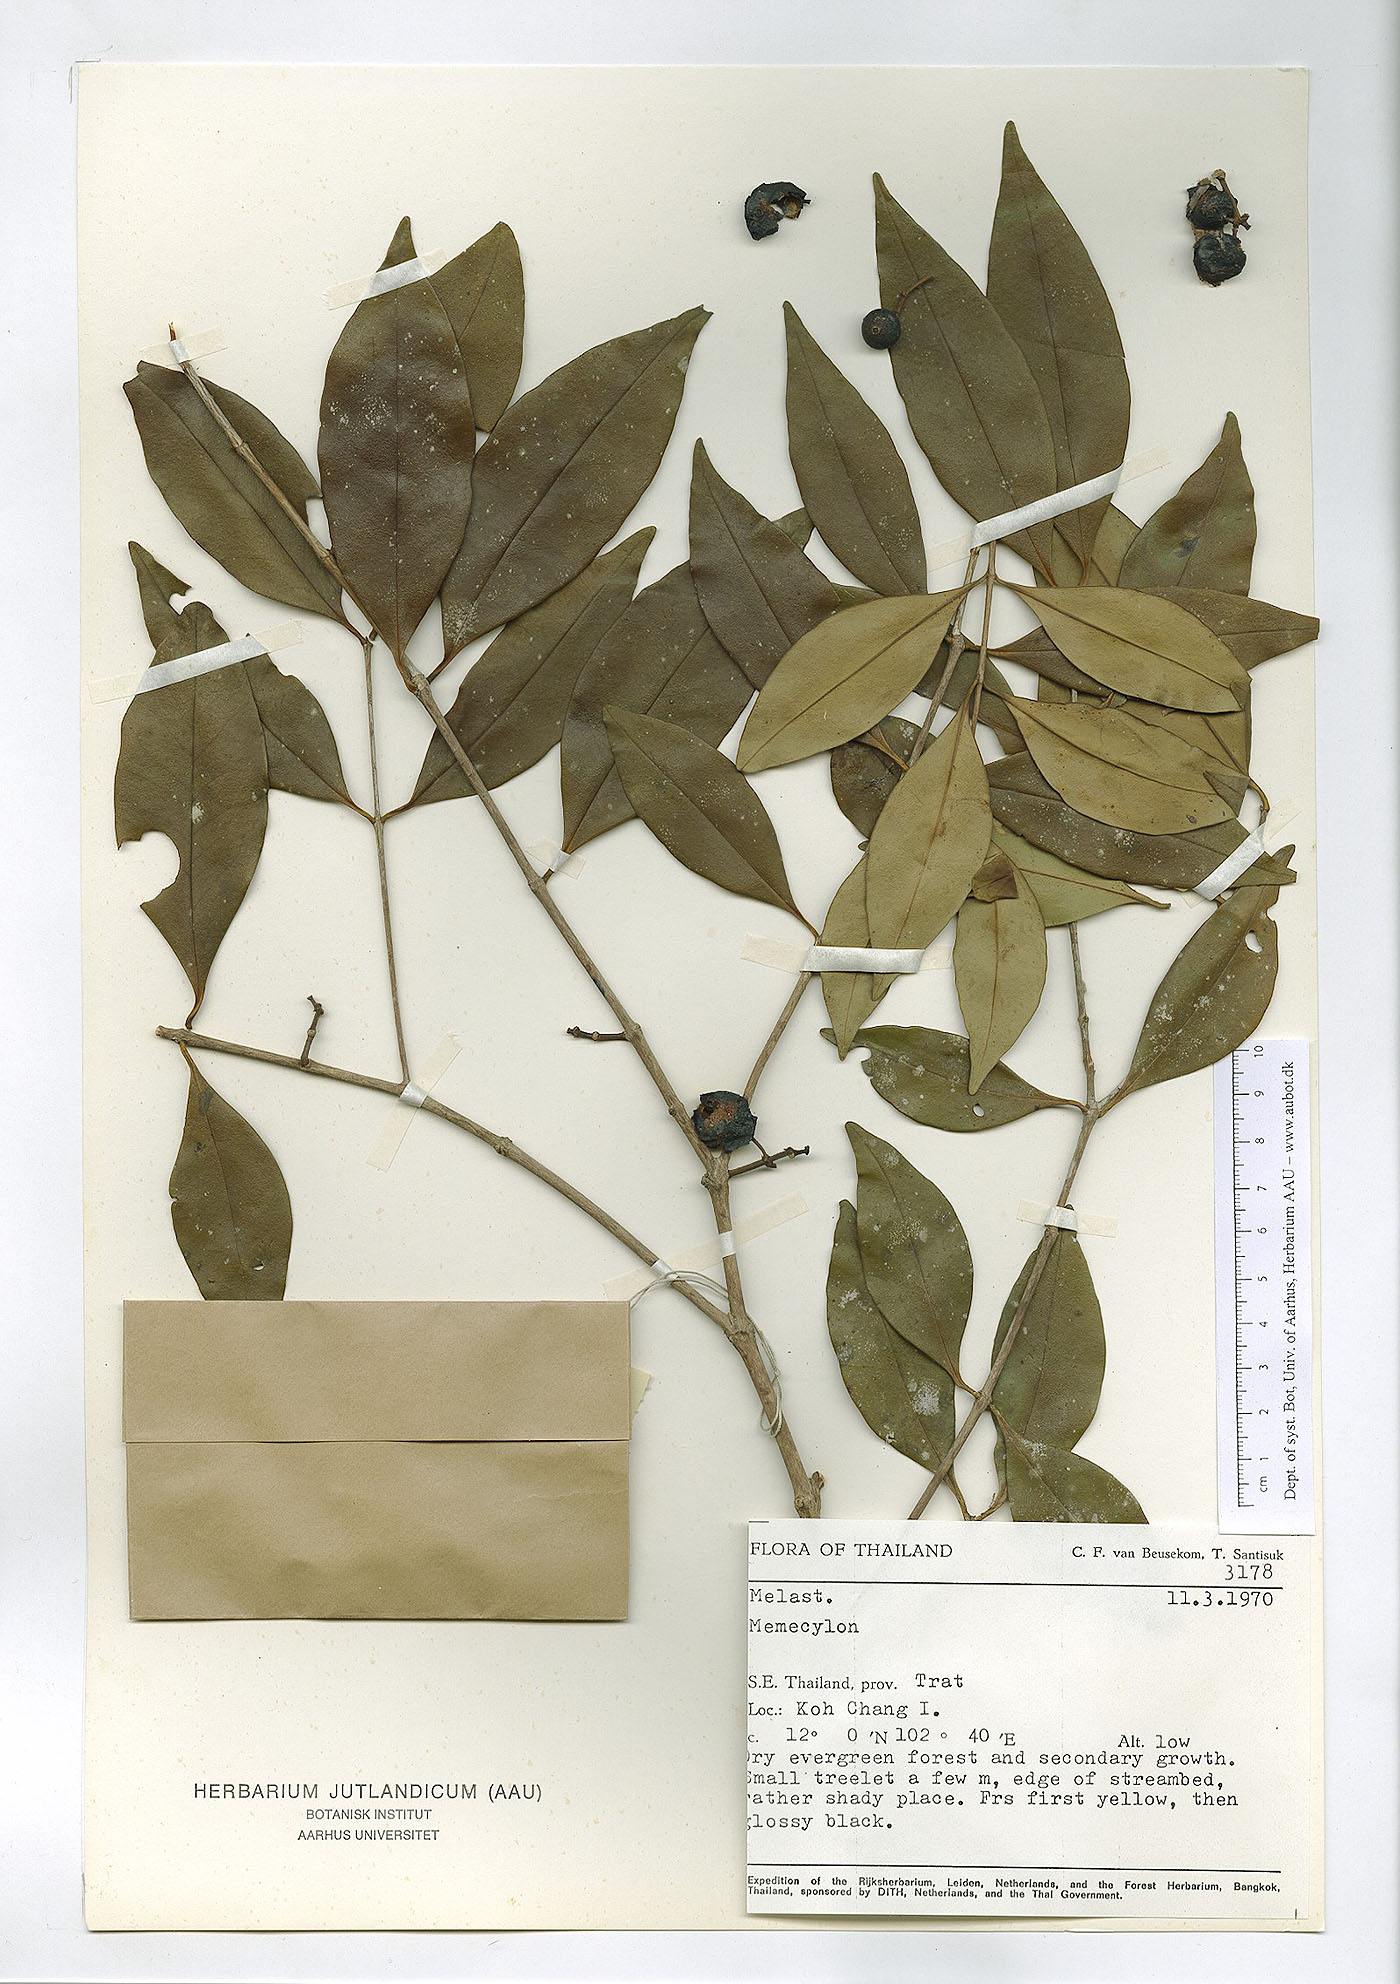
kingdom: Plantae
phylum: Tracheophyta
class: Magnoliopsida
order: Myrtales
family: Melastomataceae
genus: Memecylon
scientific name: Memecylon edule
